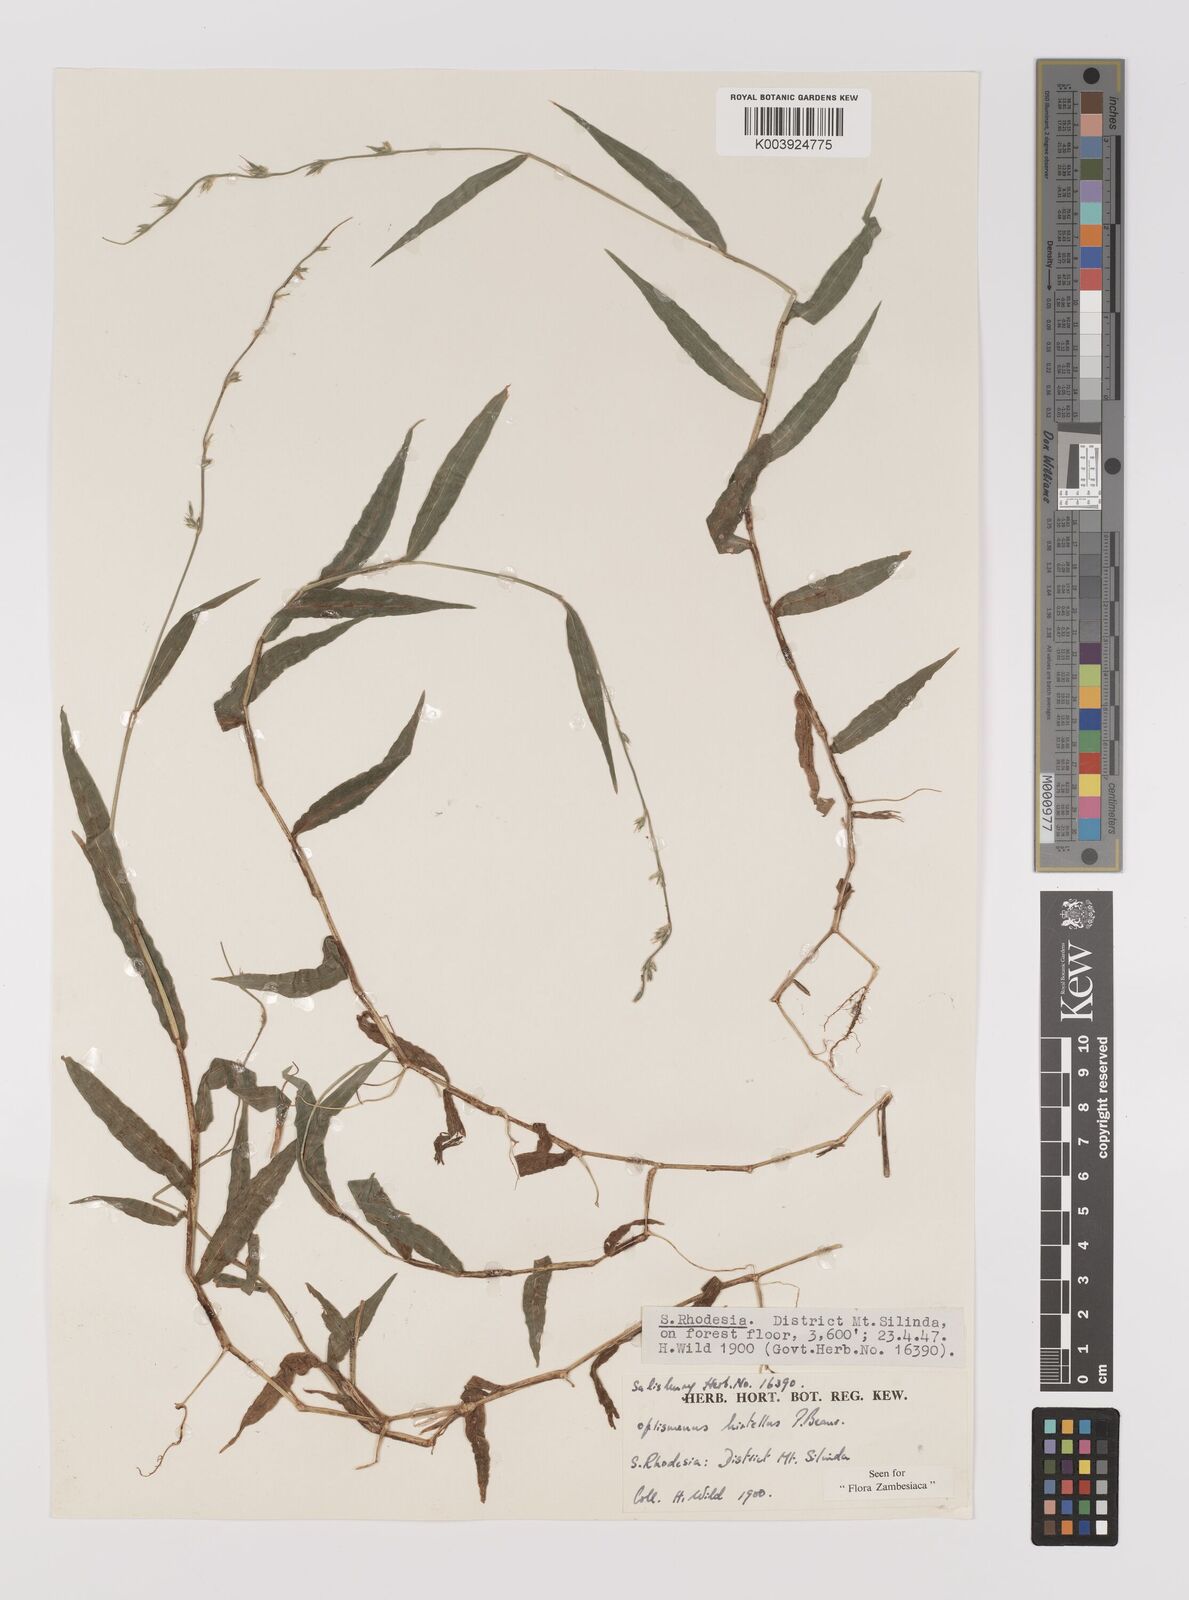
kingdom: Plantae
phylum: Tracheophyta
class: Liliopsida
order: Poales
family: Poaceae
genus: Oplismenus
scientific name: Oplismenus hirtellus
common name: Basketgrass
